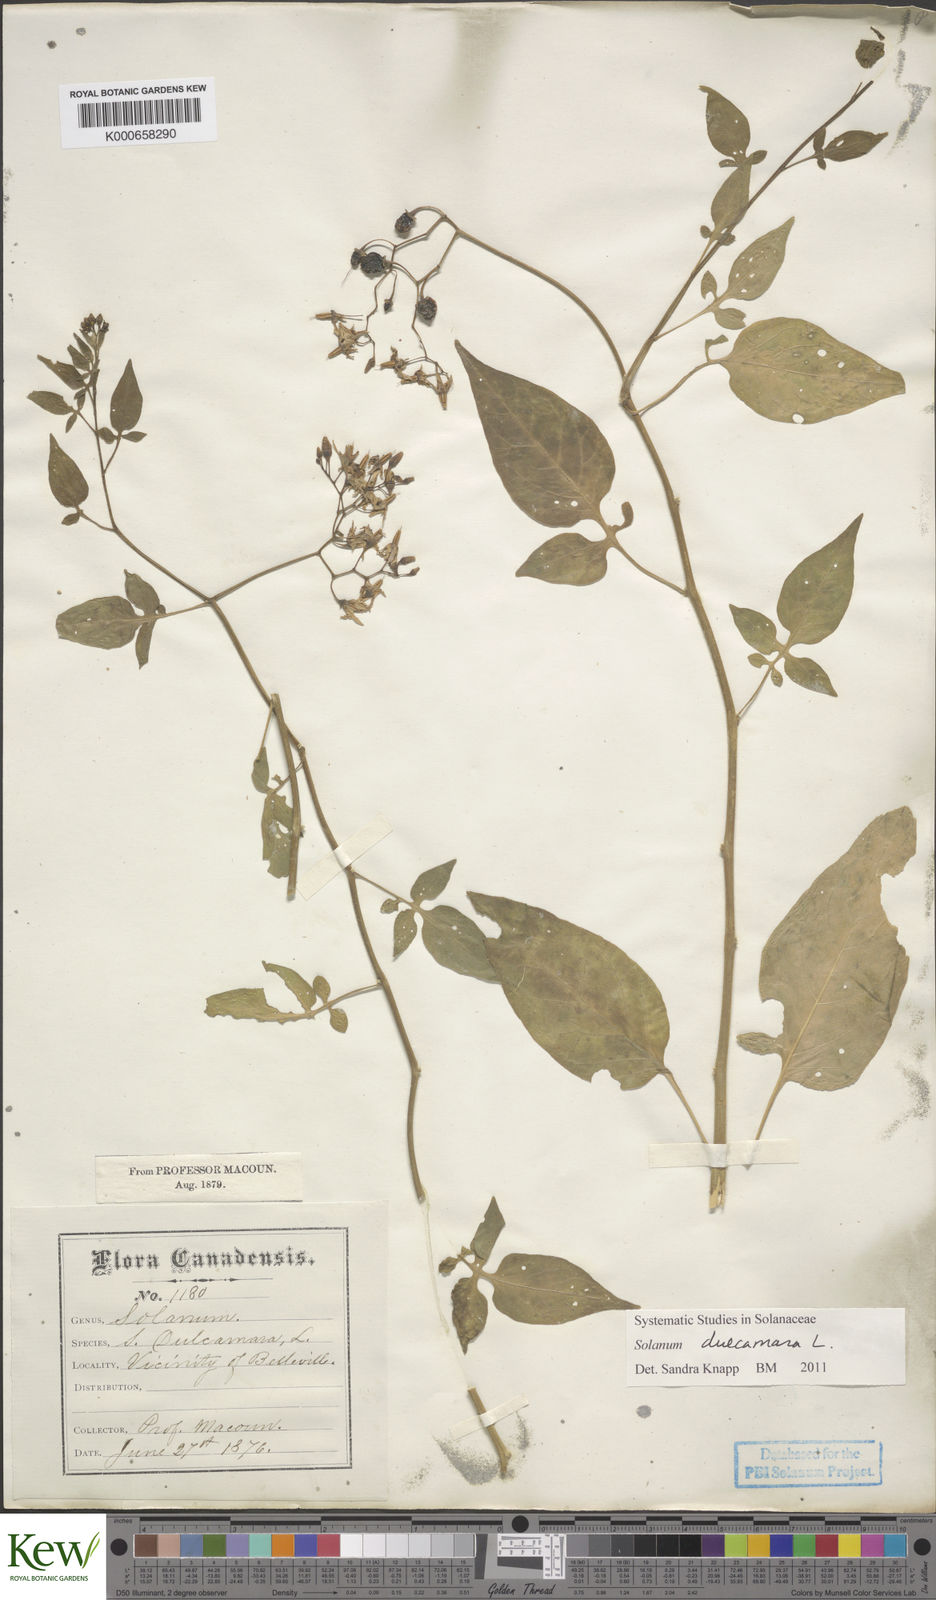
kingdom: Plantae
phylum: Tracheophyta
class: Magnoliopsida
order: Solanales
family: Solanaceae
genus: Solanum
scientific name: Solanum dulcamara
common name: Climbing nightshade
